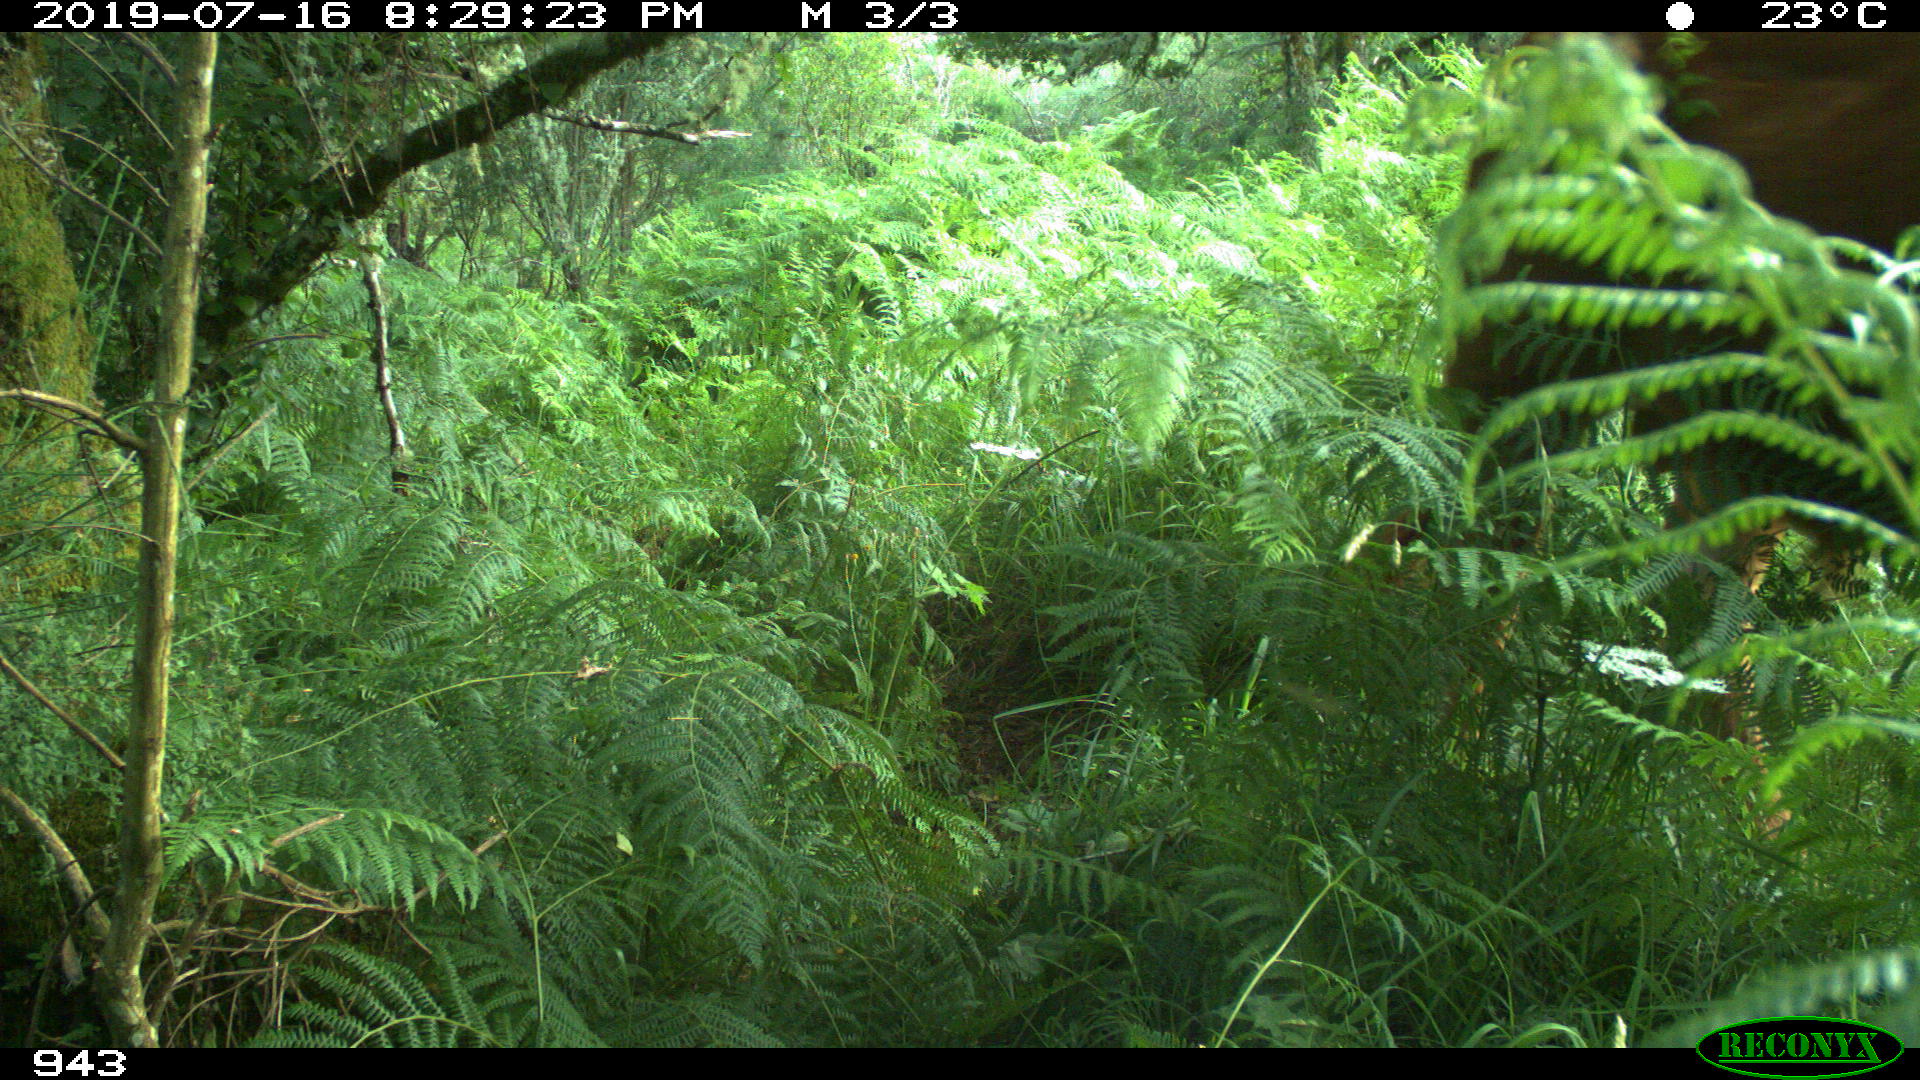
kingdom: Animalia
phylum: Chordata
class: Mammalia
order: Artiodactyla
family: Bovidae
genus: Bos
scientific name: Bos taurus
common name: Domesticated cattle
